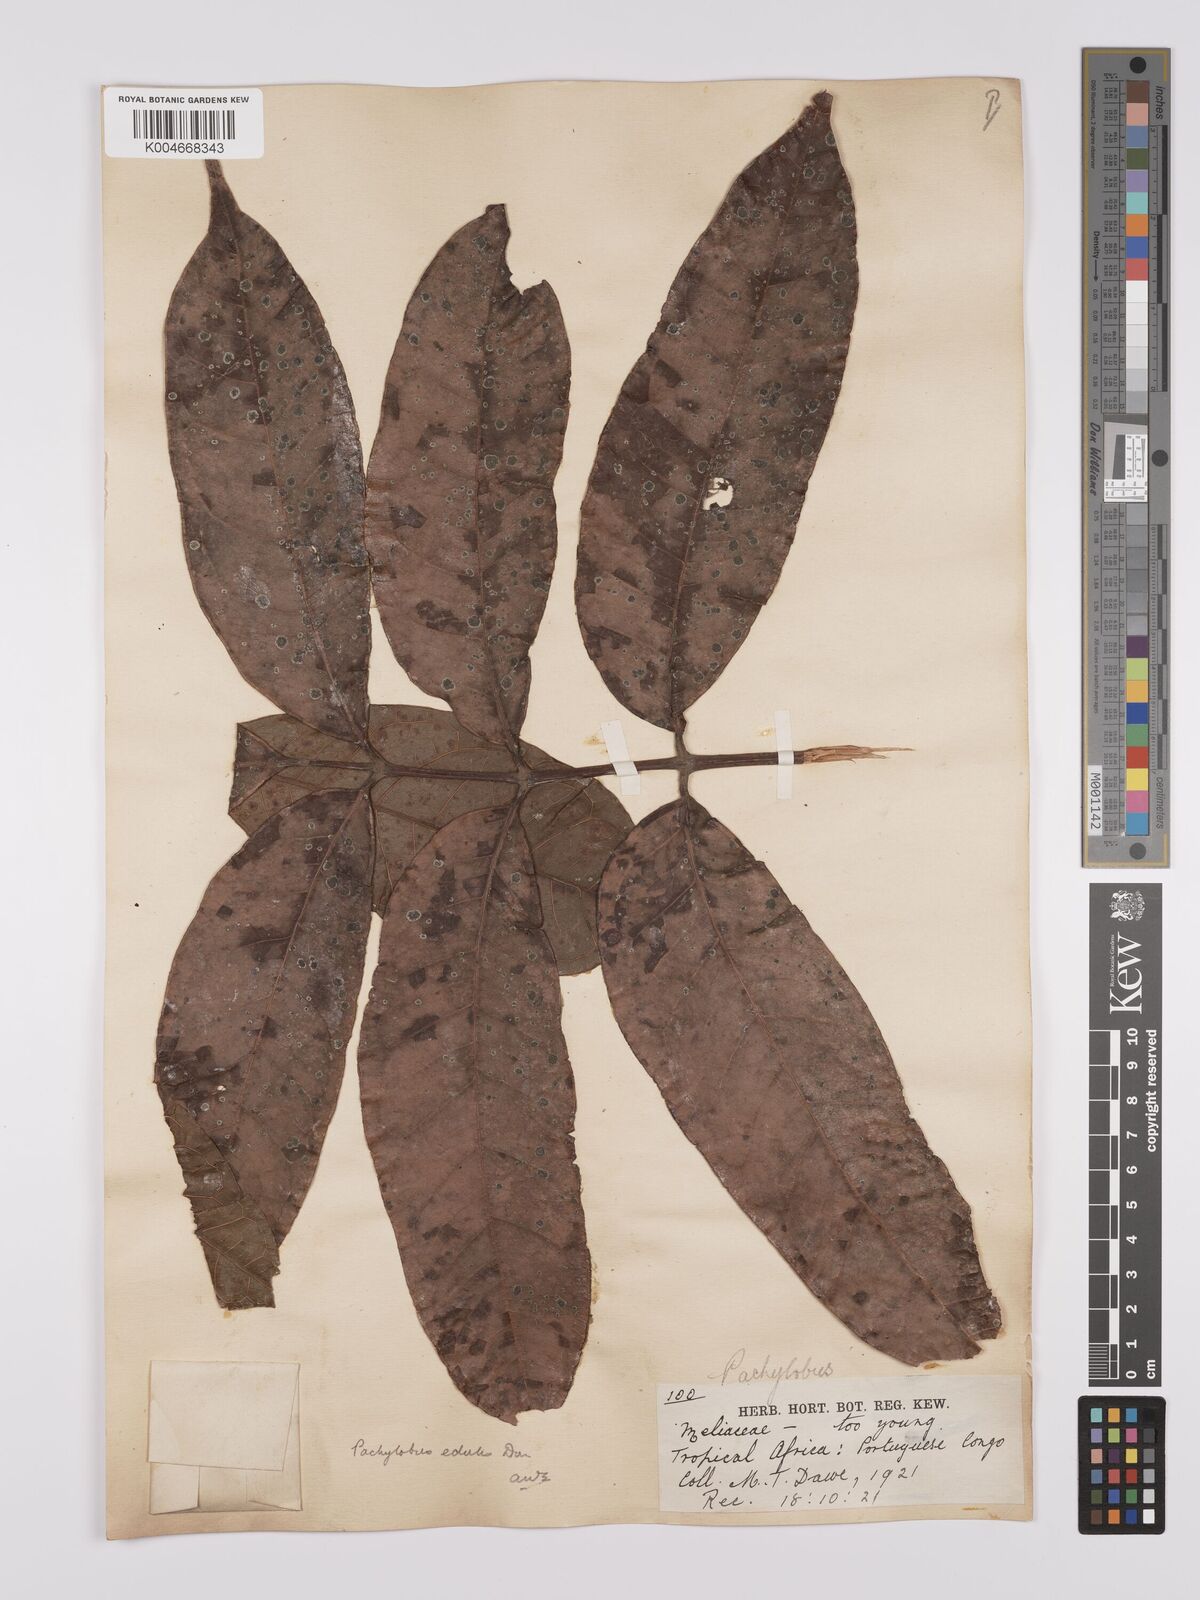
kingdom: Plantae
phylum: Tracheophyta
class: Magnoliopsida
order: Sapindales
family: Burseraceae
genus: Pachylobus
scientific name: Pachylobus edulis
